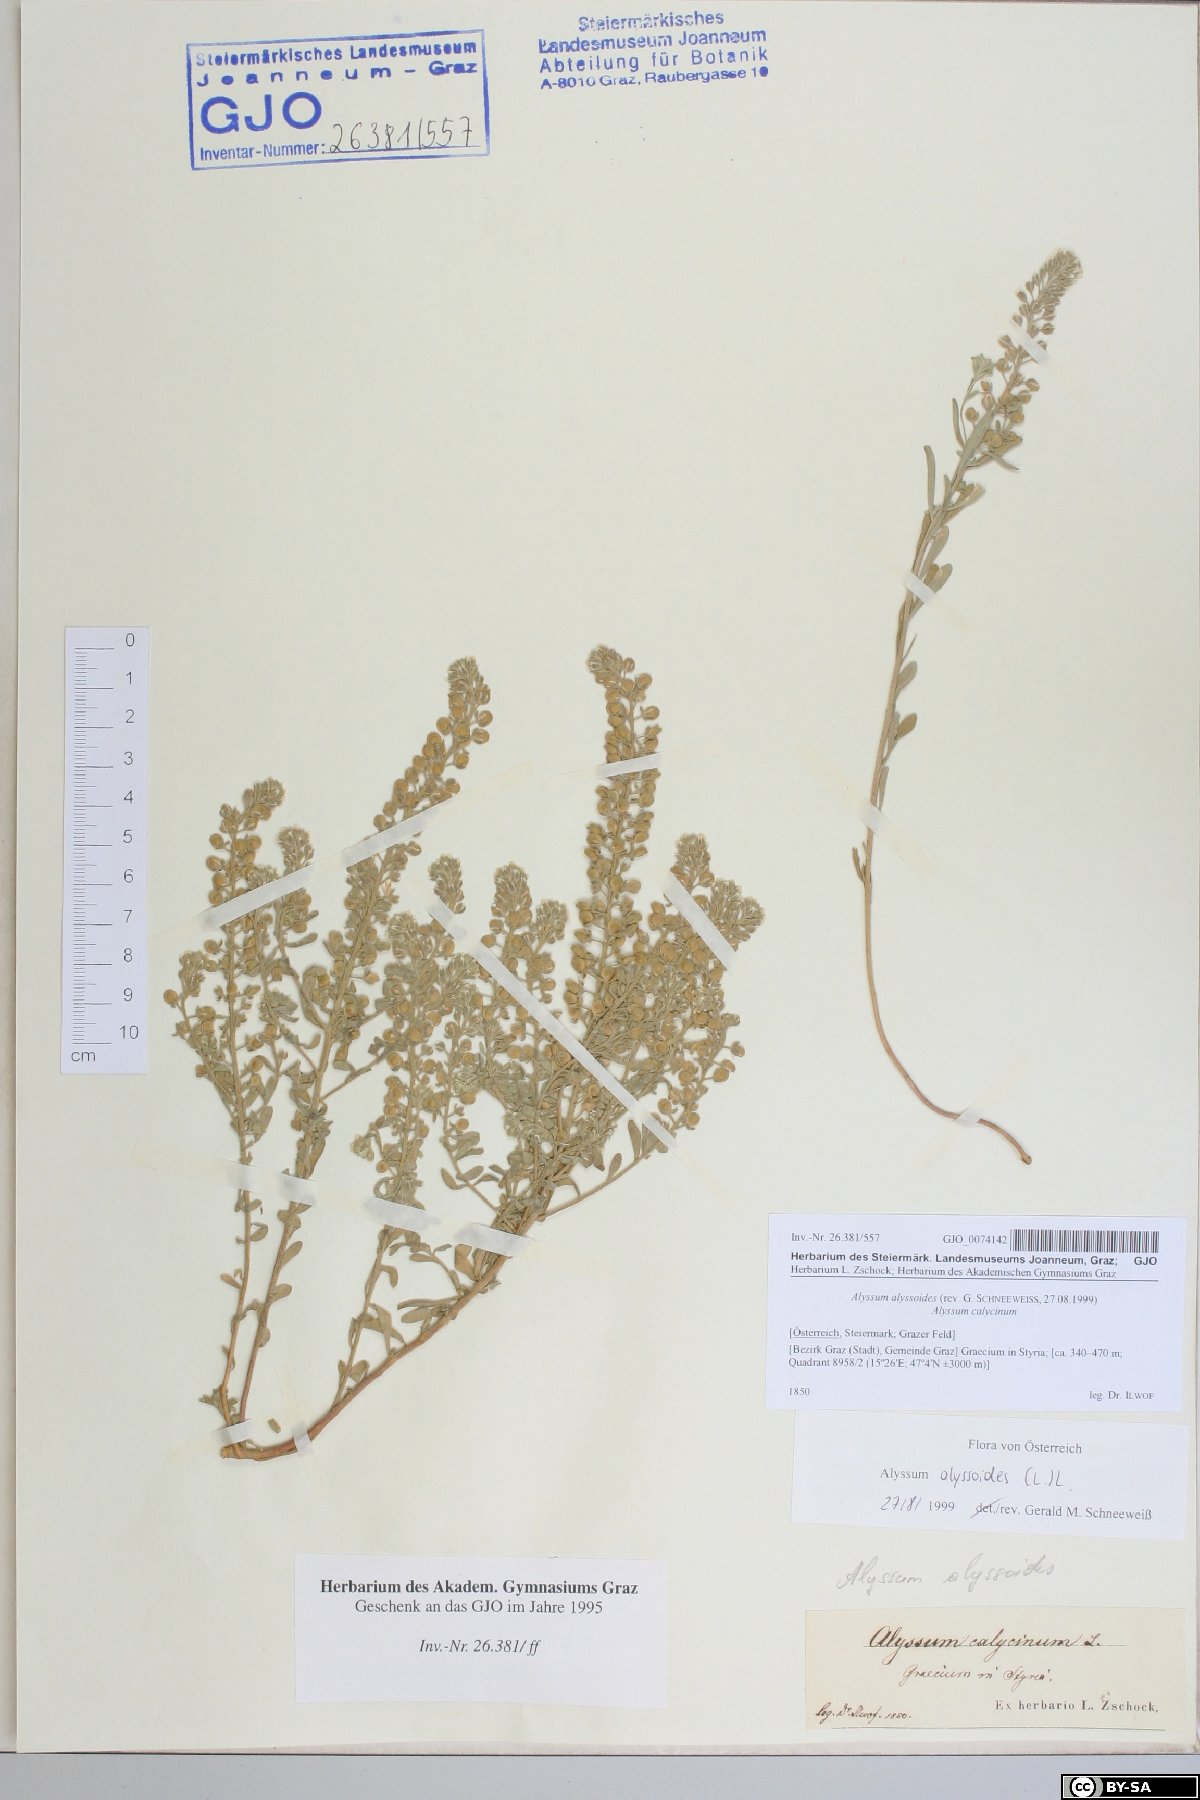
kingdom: Plantae
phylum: Tracheophyta
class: Magnoliopsida
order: Brassicales
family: Brassicaceae
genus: Alyssum
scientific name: Alyssum alyssoides
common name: Small alison
